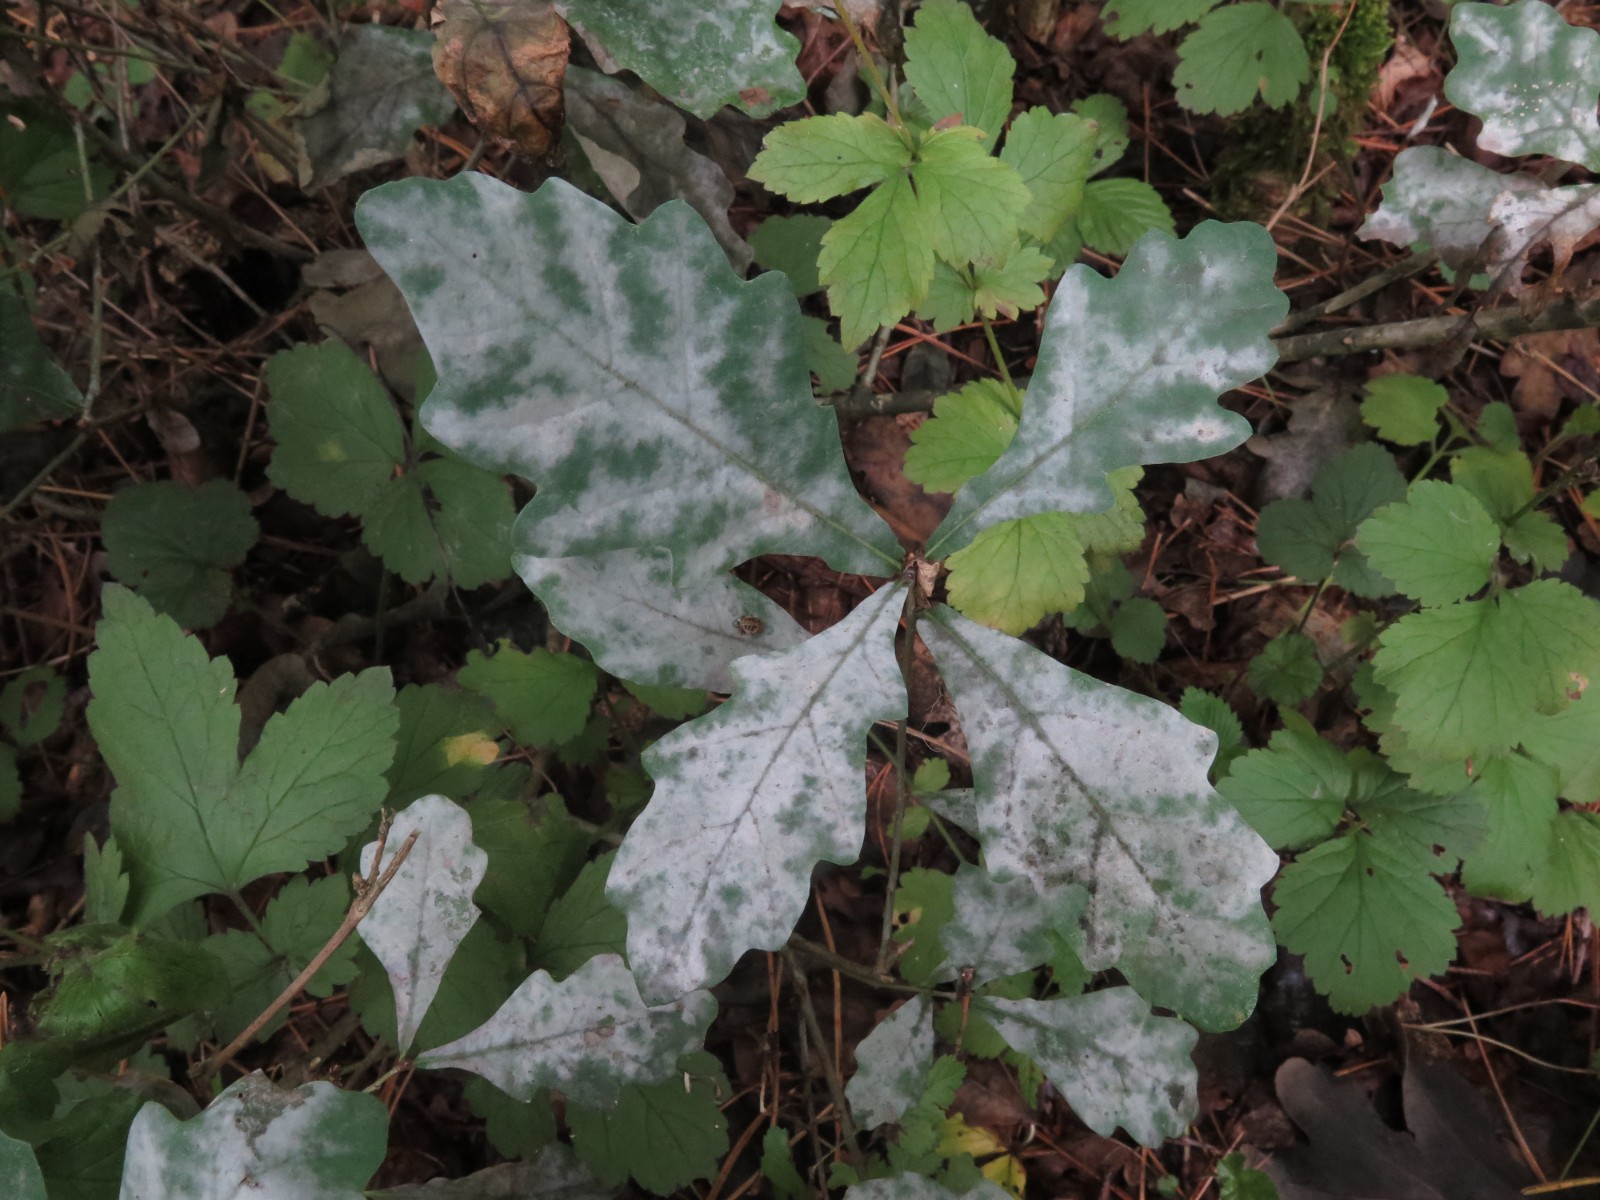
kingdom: Fungi
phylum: Ascomycota
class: Leotiomycetes
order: Helotiales
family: Erysiphaceae
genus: Erysiphe
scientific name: Erysiphe alphitoides
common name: ege-meldug
